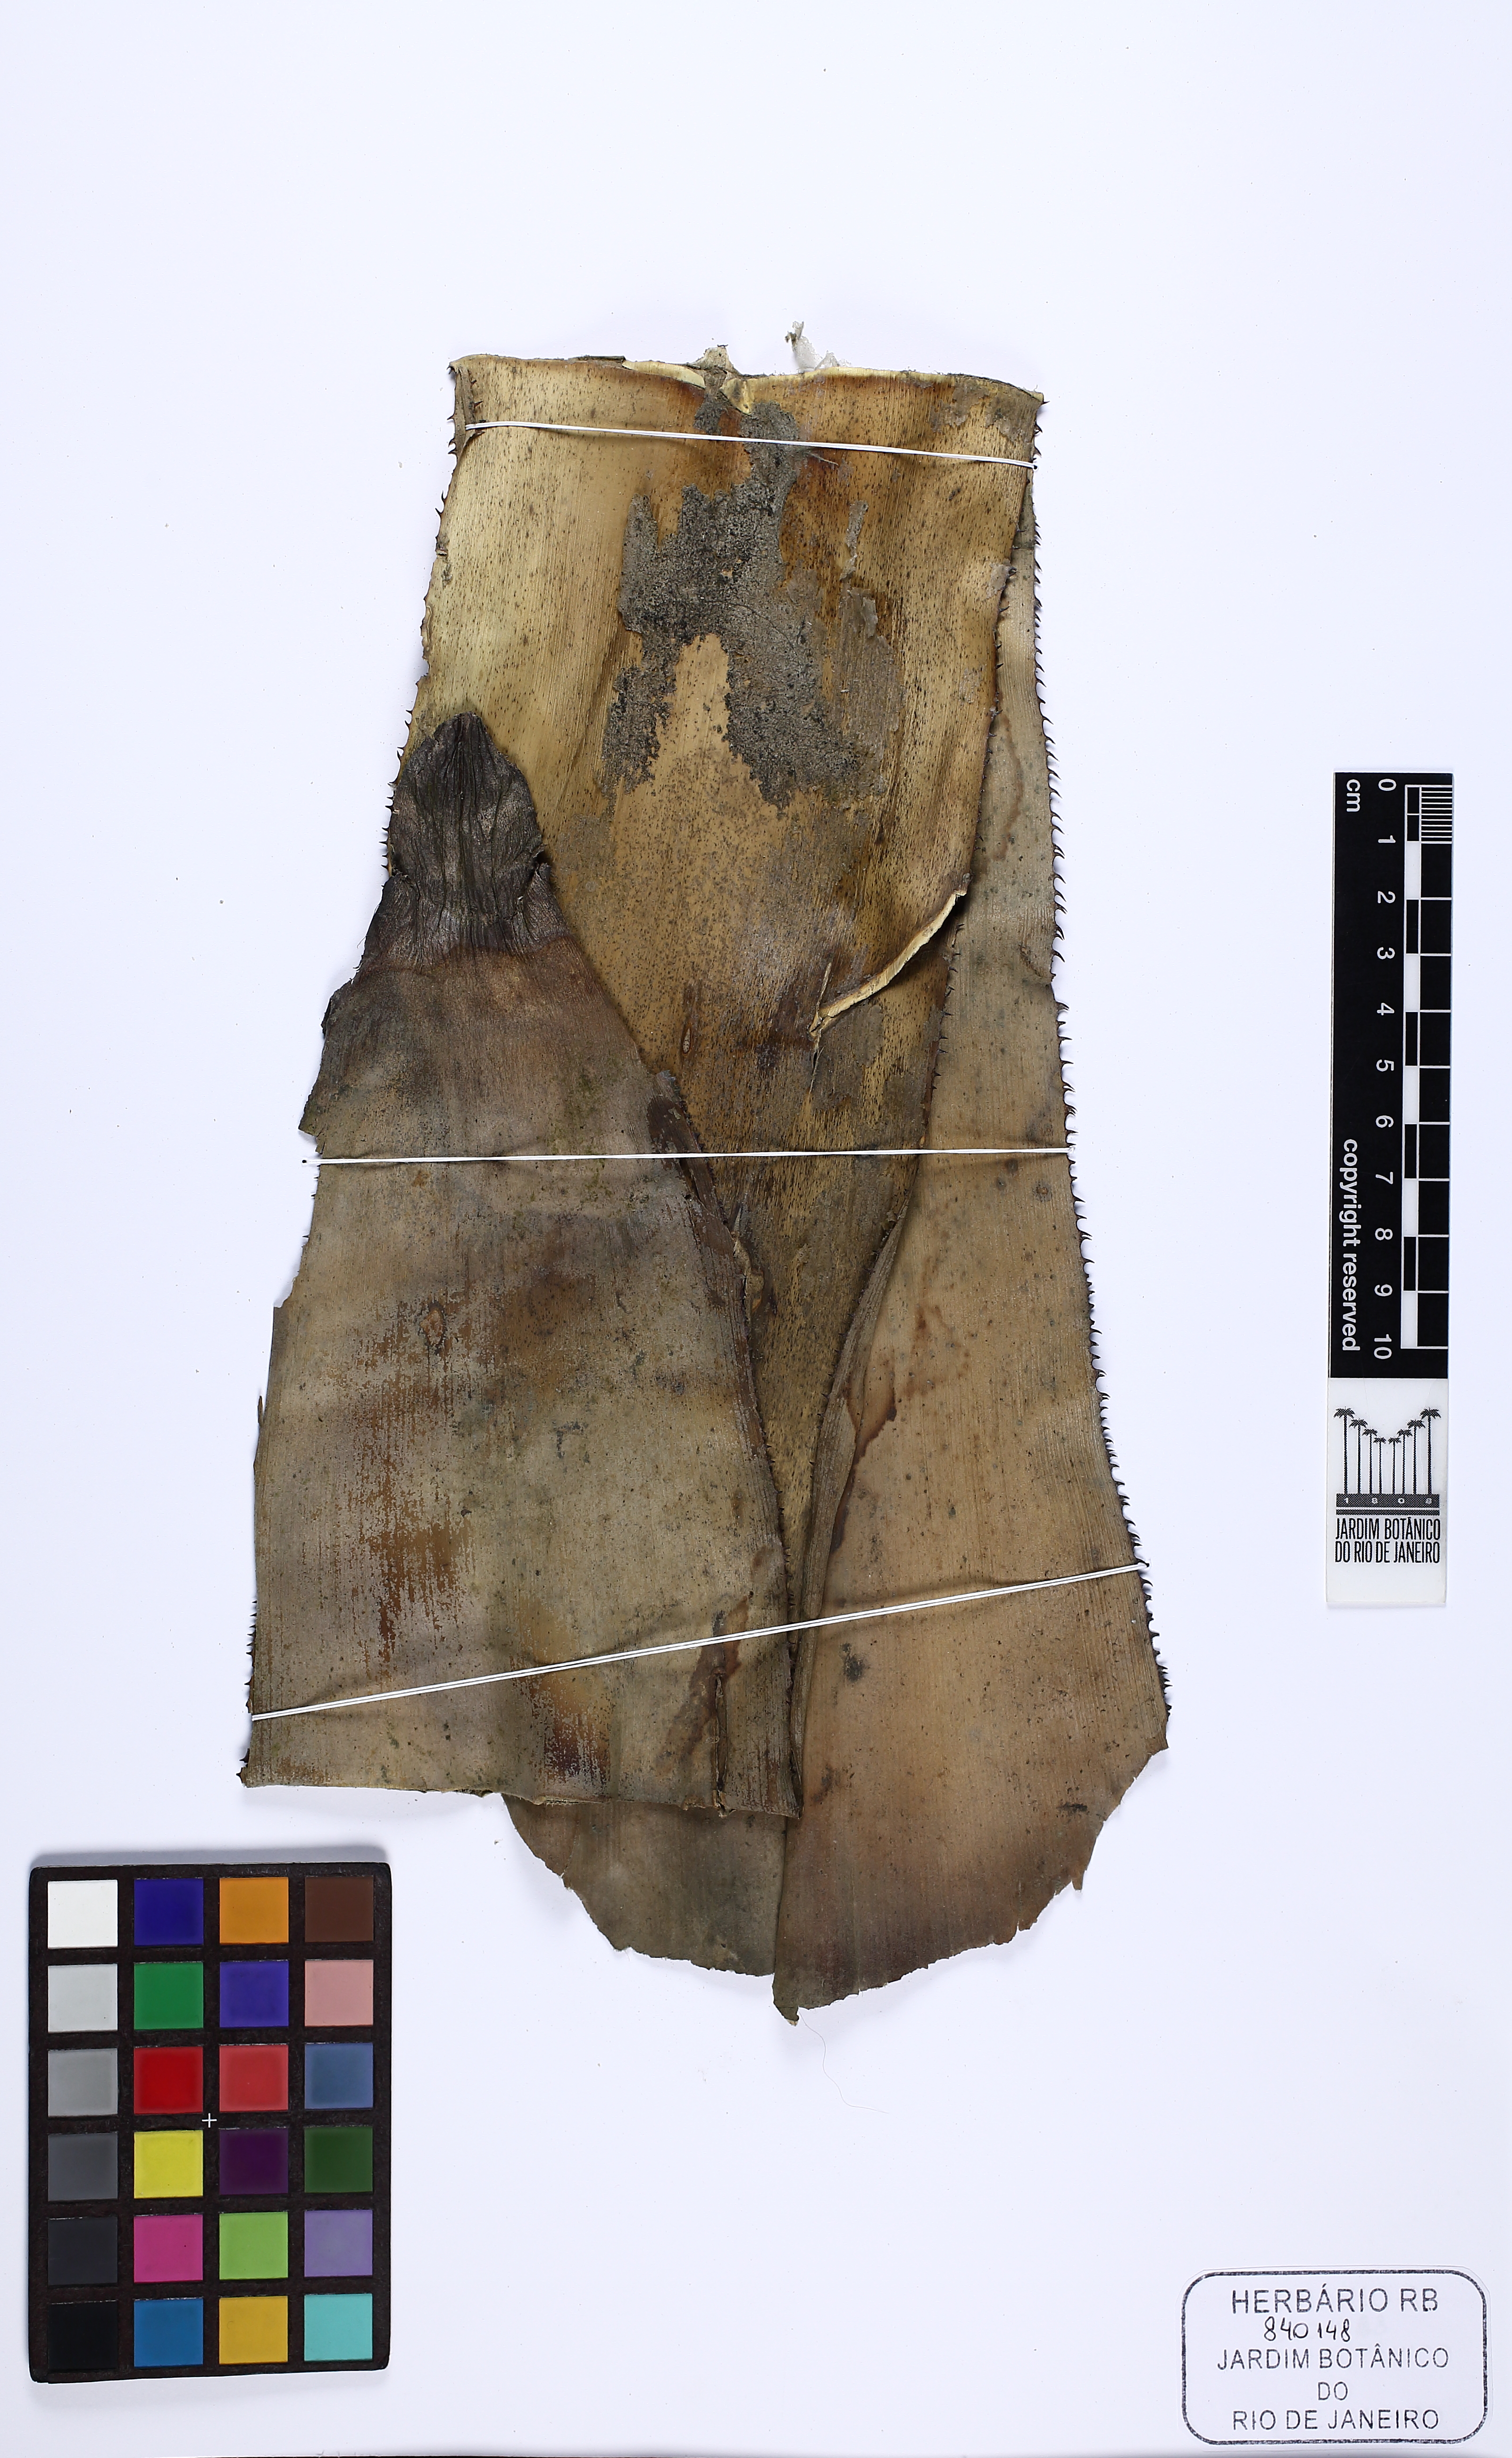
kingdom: Plantae
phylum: Tracheophyta
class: Liliopsida
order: Poales
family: Bromeliaceae
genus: Hohenbergia
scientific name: Hohenbergia itamarajuensis
